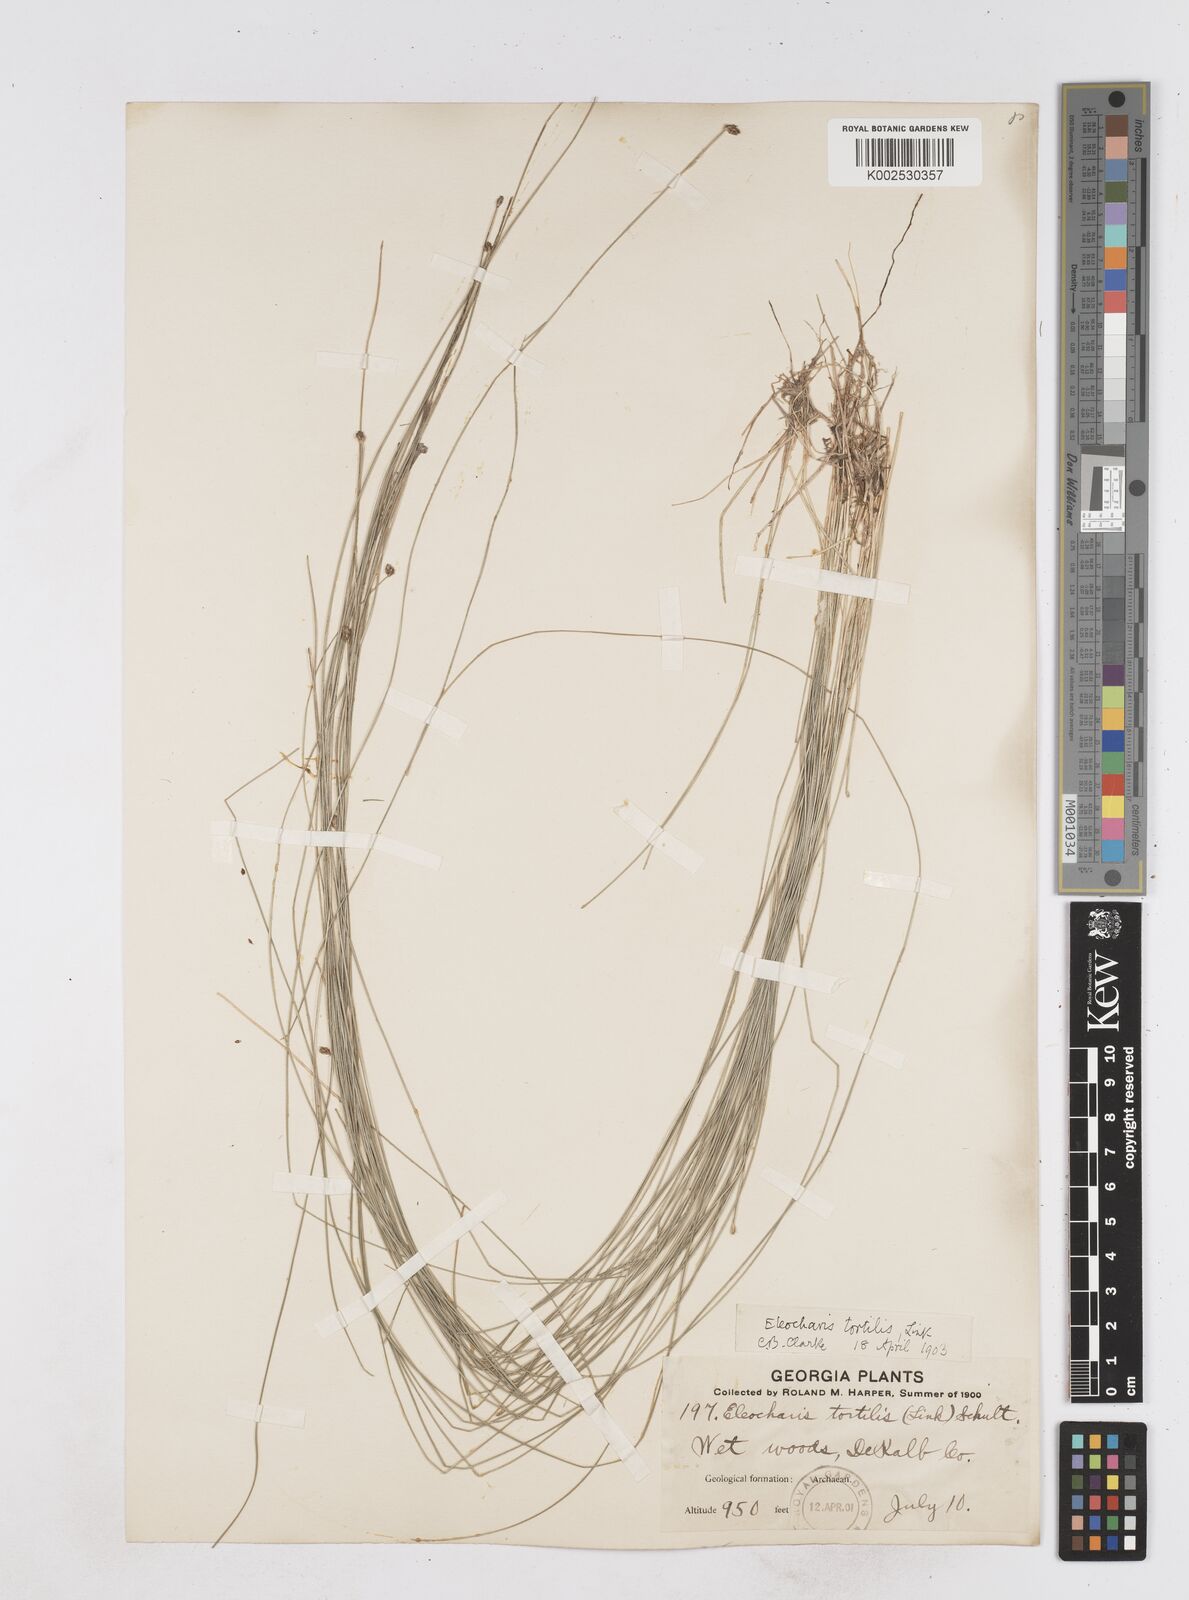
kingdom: Plantae
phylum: Tracheophyta
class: Liliopsida
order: Poales
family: Cyperaceae
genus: Eleocharis
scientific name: Eleocharis tortilis
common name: Twisted spike sedge
